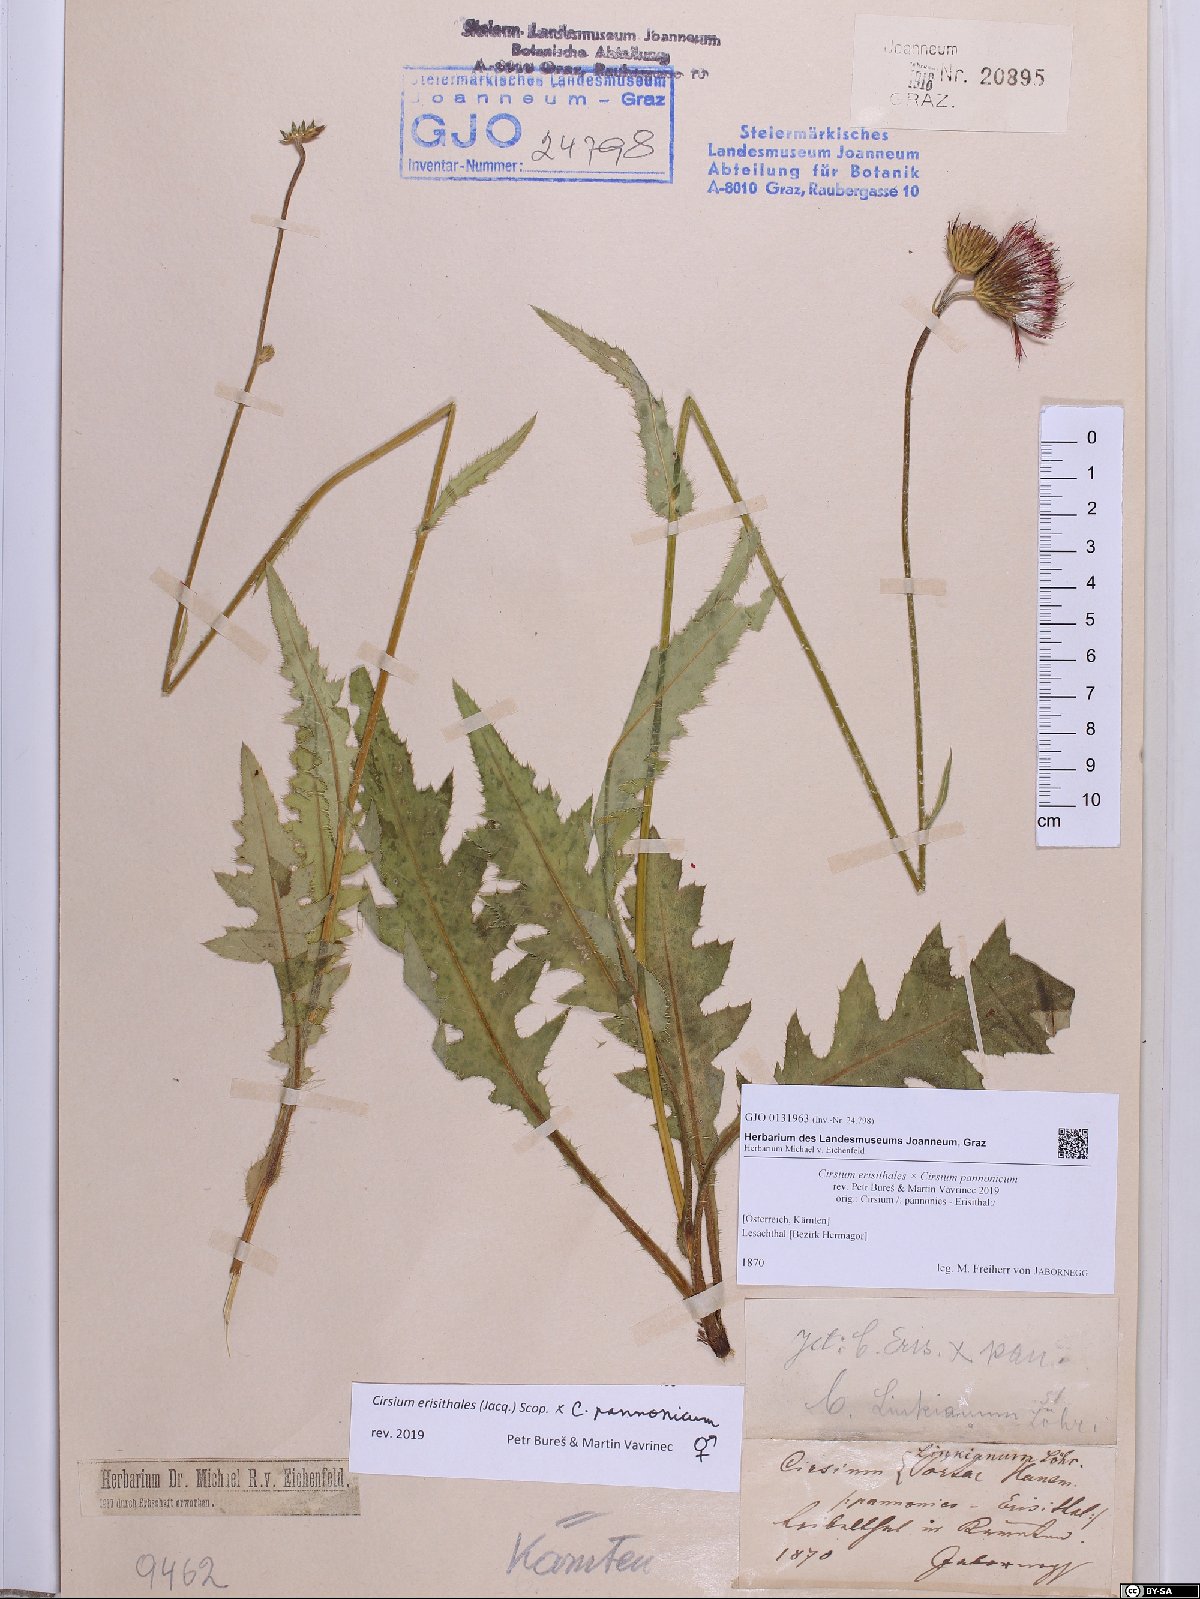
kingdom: Plantae
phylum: Tracheophyta
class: Magnoliopsida
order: Asterales
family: Asteraceae
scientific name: Asteraceae
